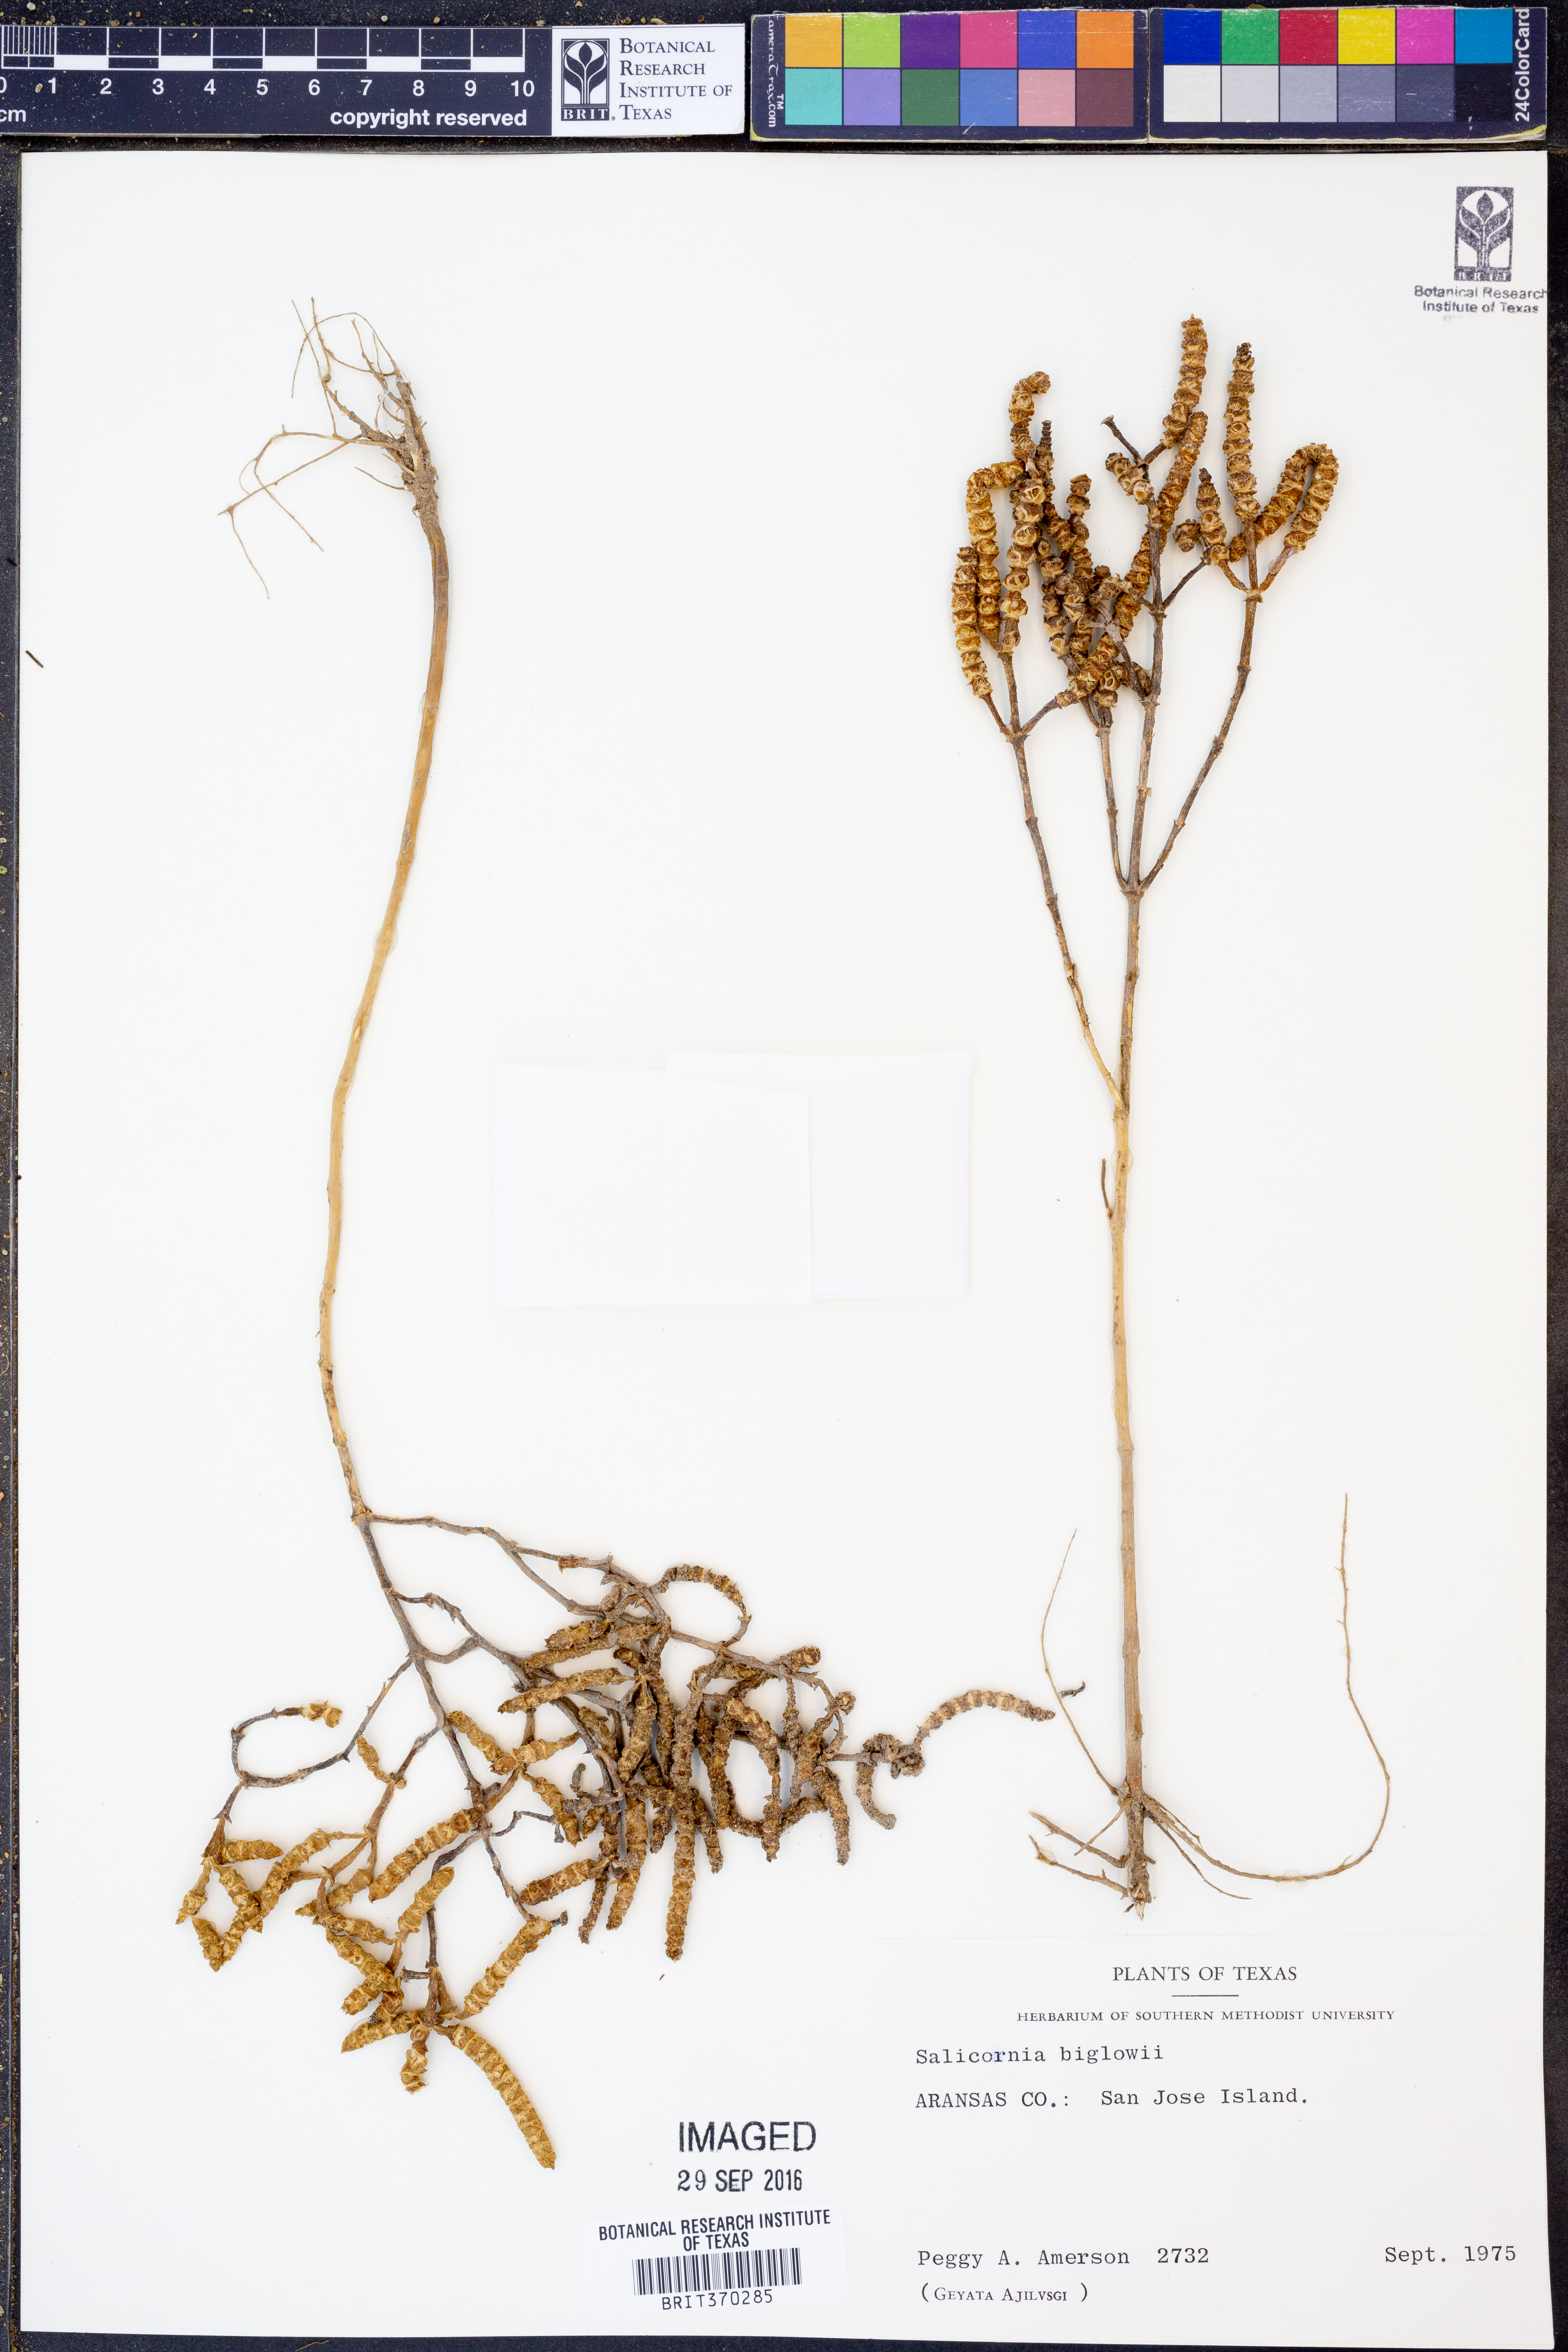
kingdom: Plantae
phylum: Tracheophyta
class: Magnoliopsida
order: Caryophyllales
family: Amaranthaceae
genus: Salicornia
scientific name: Salicornia bigelovii
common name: Dwarf glasswort
